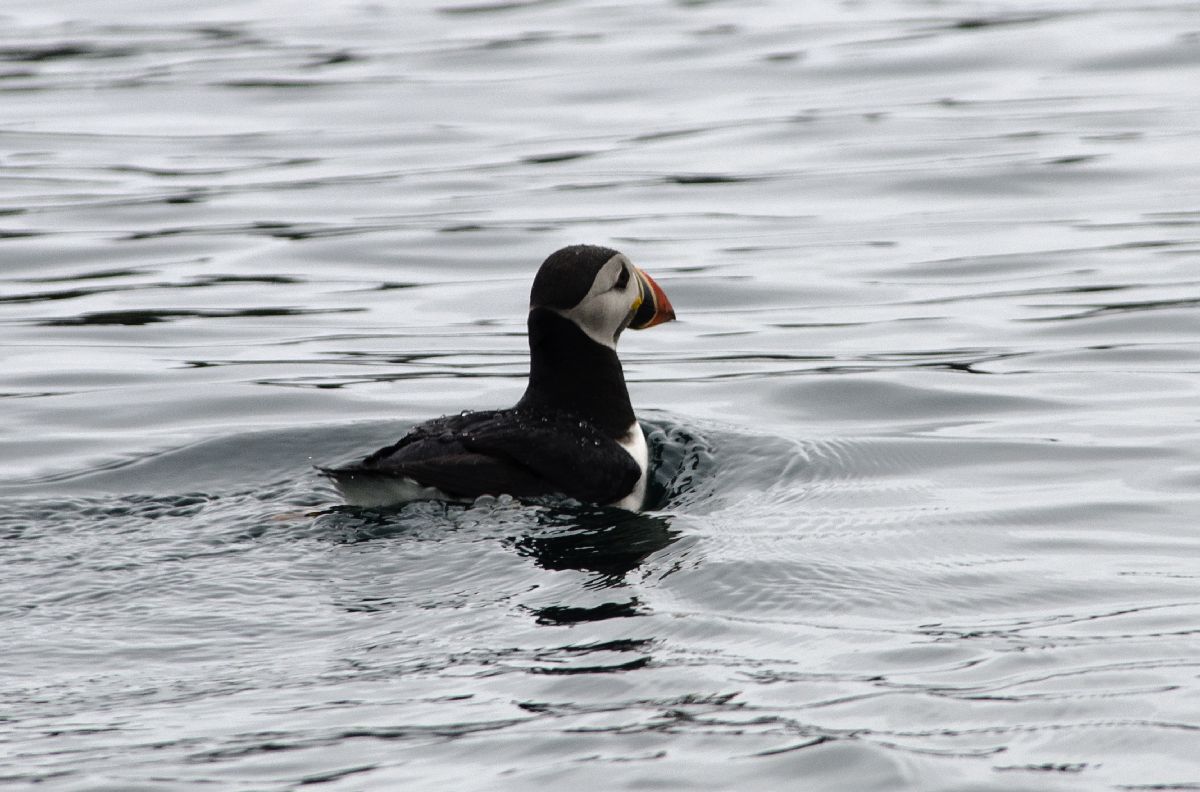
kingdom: Animalia
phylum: Chordata
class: Aves
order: Charadriiformes
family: Alcidae
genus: Fratercula
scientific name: Fratercula arctica
